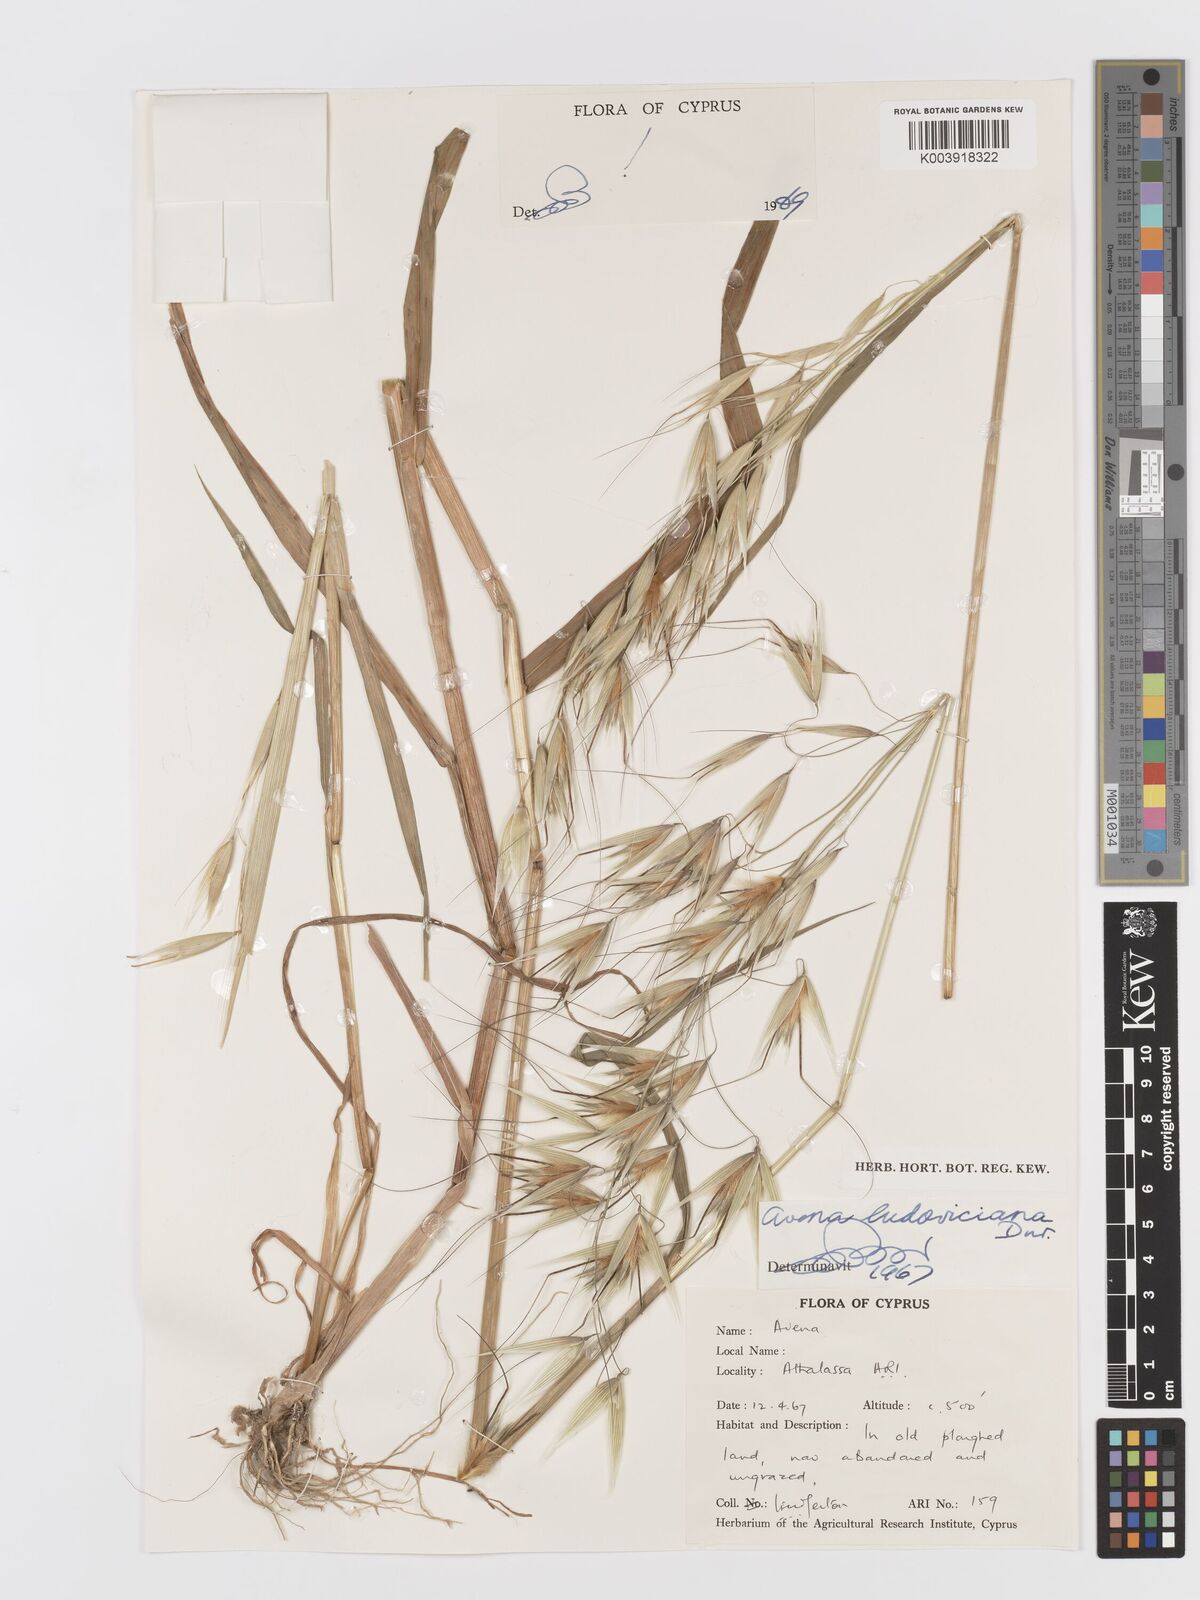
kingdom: Plantae
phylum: Tracheophyta
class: Liliopsida
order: Poales
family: Poaceae
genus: Avena
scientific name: Avena sterilis
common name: Animated oat
